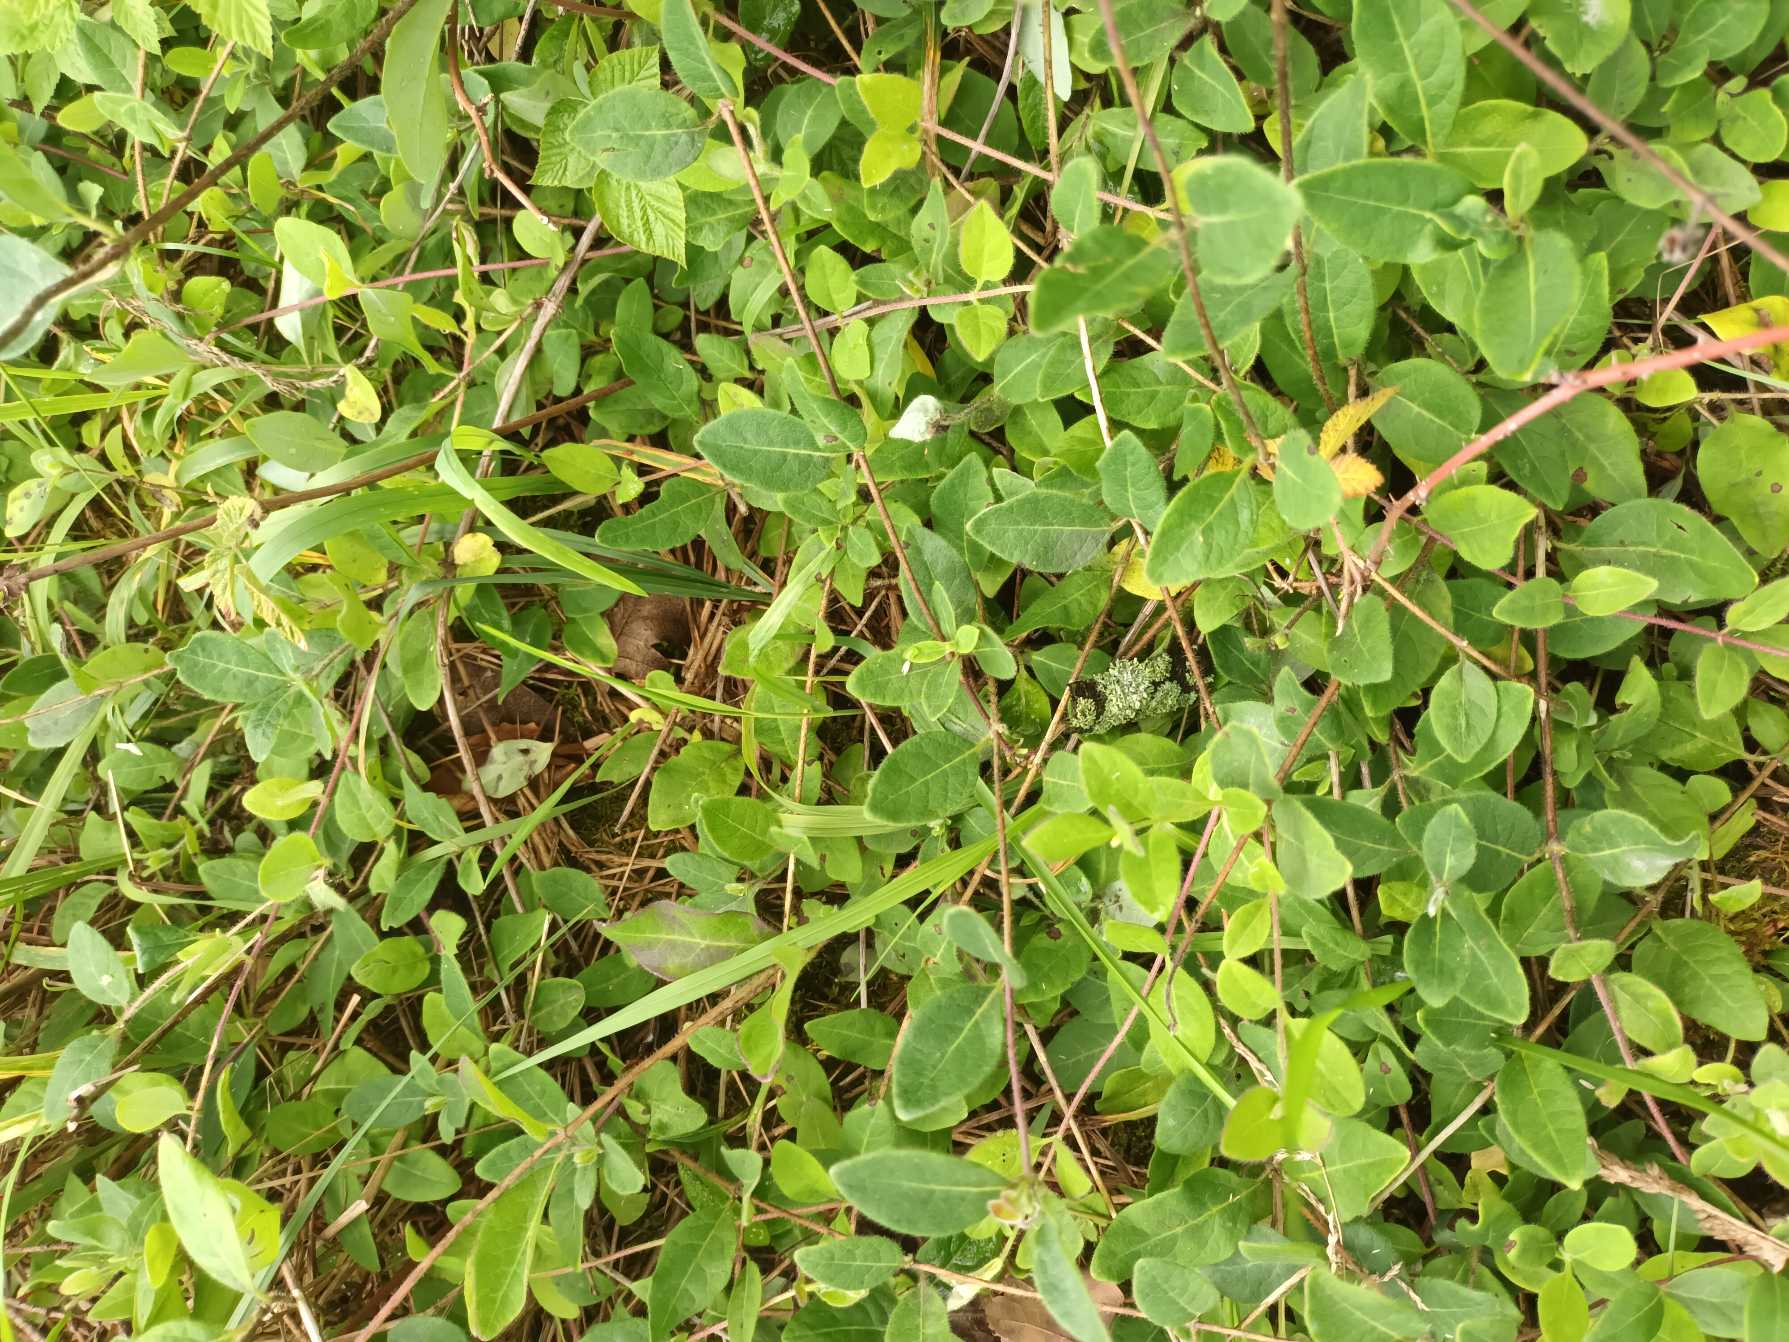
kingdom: Plantae
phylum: Tracheophyta
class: Magnoliopsida
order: Dipsacales
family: Caprifoliaceae
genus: Lonicera
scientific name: Lonicera periclymenum
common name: Almindelig gedeblad
